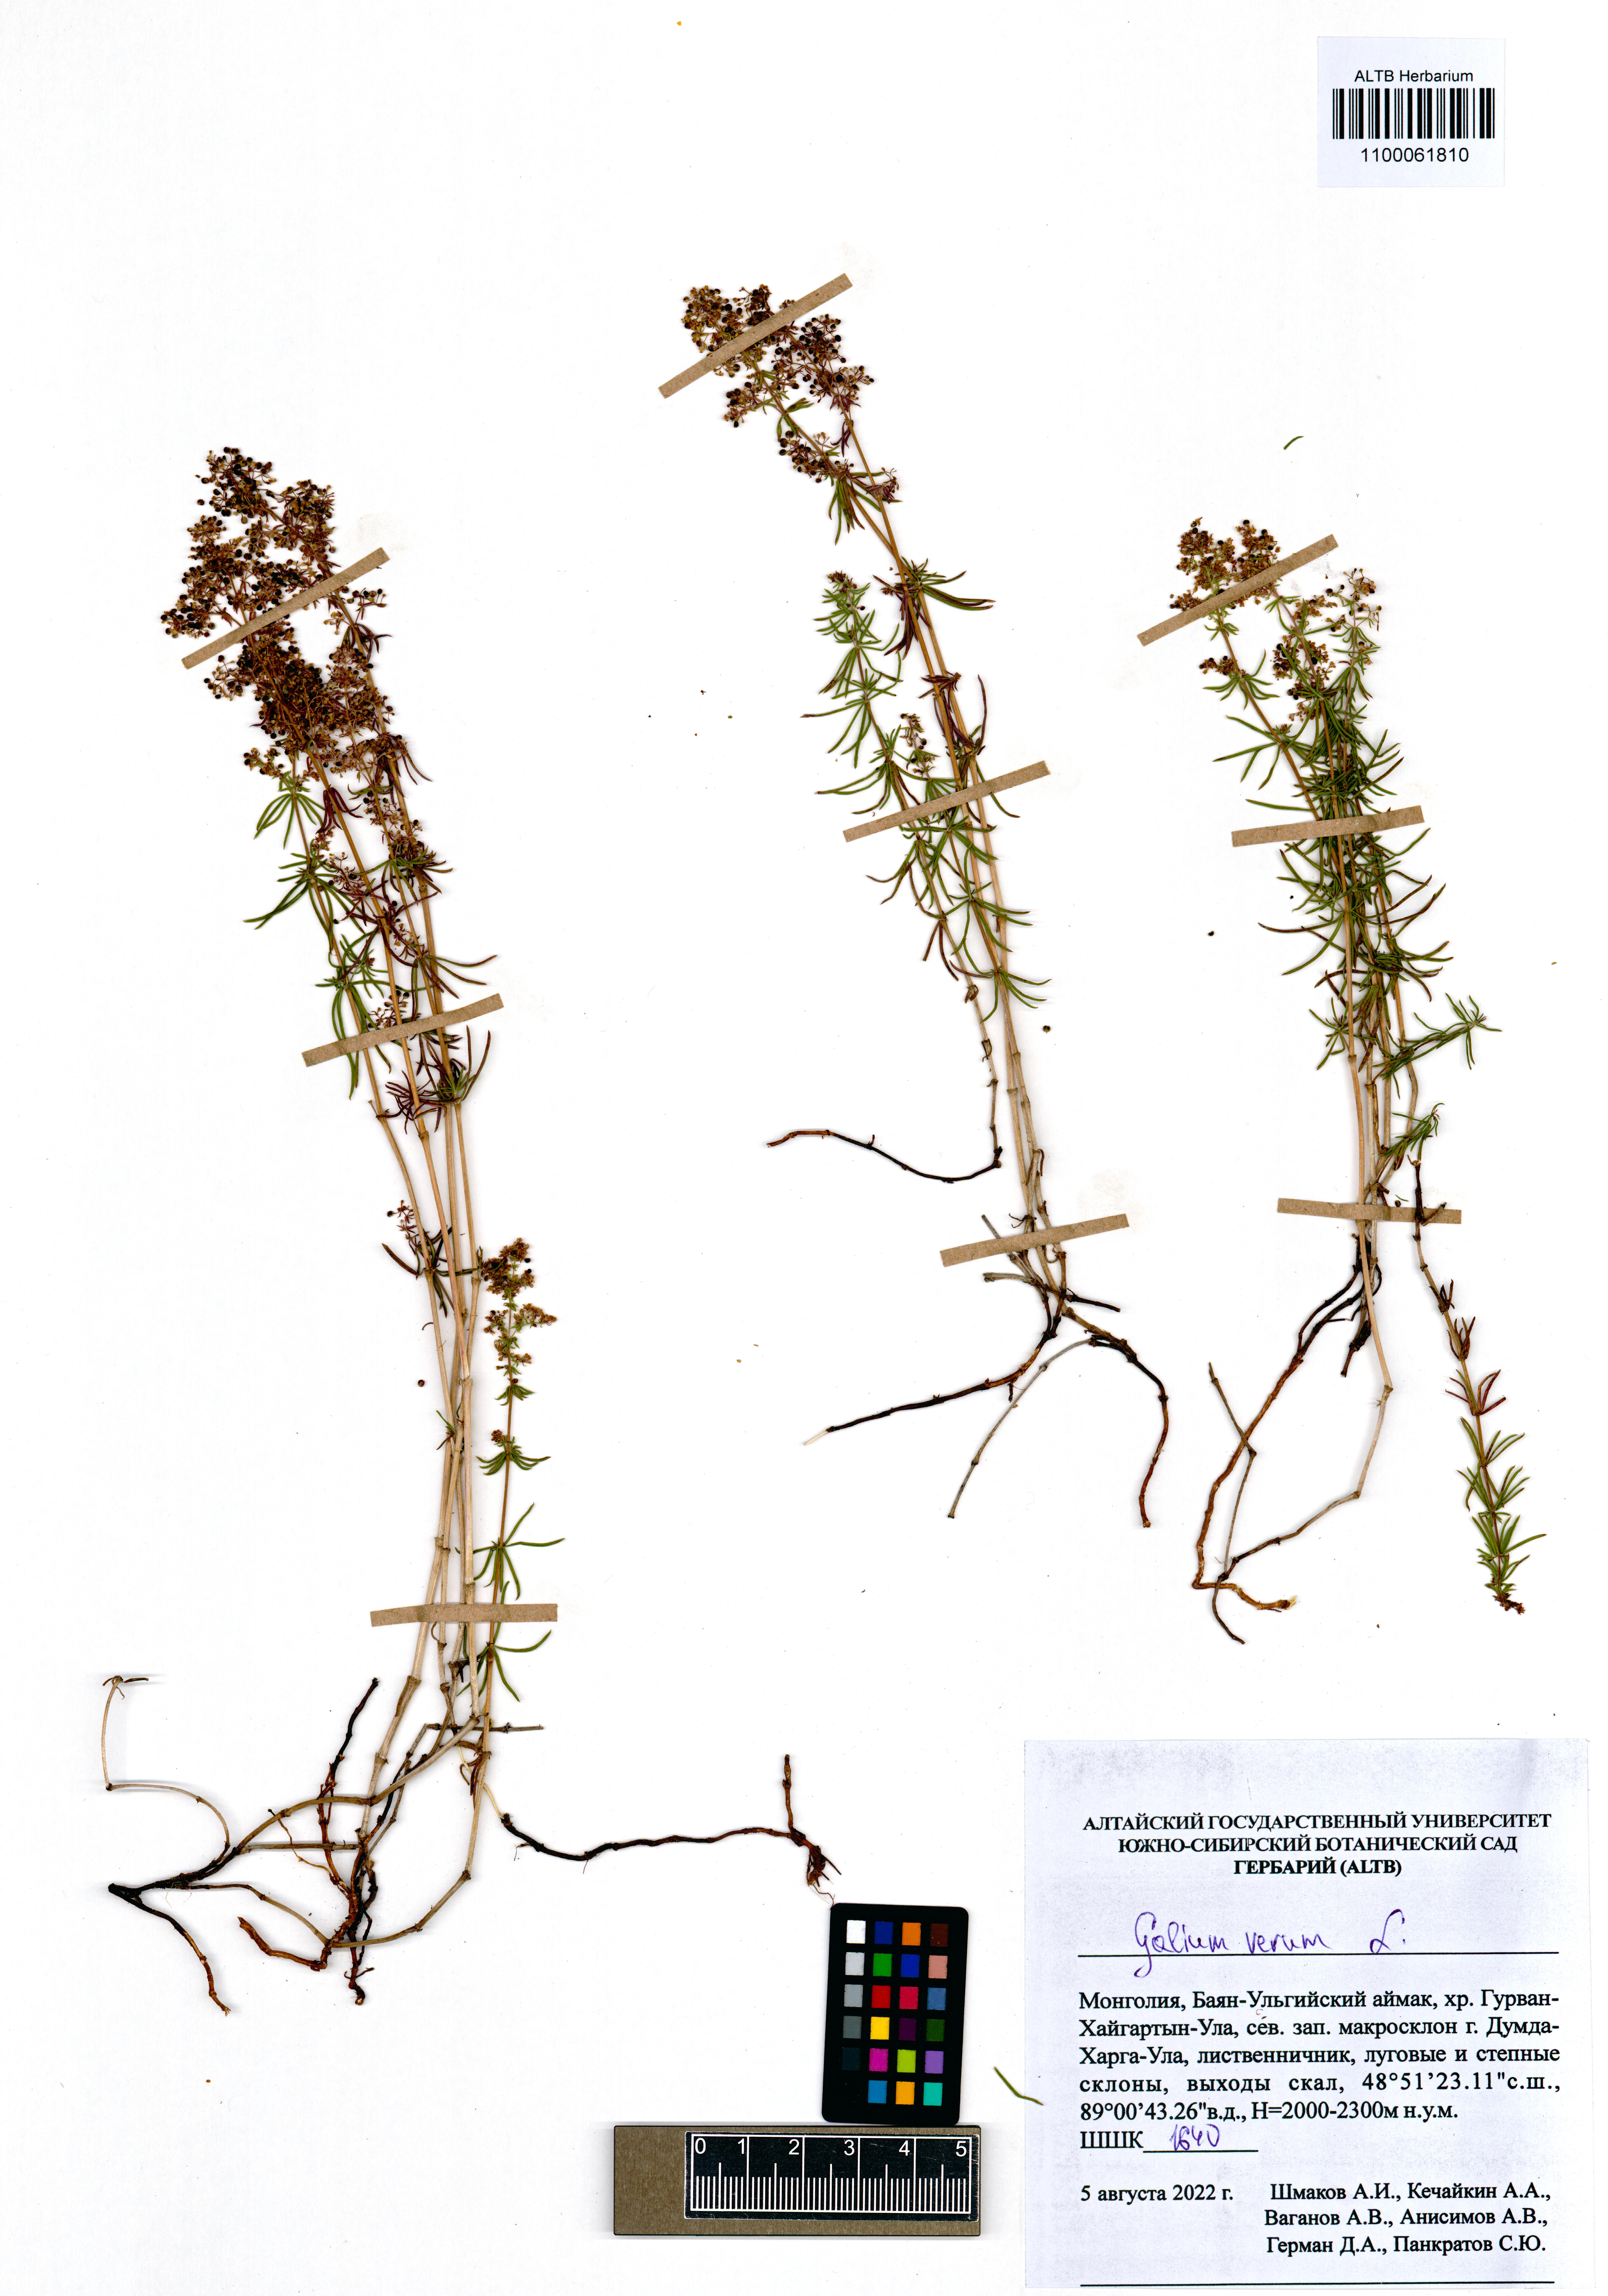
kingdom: Plantae
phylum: Tracheophyta
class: Magnoliopsida
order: Gentianales
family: Rubiaceae
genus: Galium
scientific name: Galium verum
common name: Lady's bedstraw
